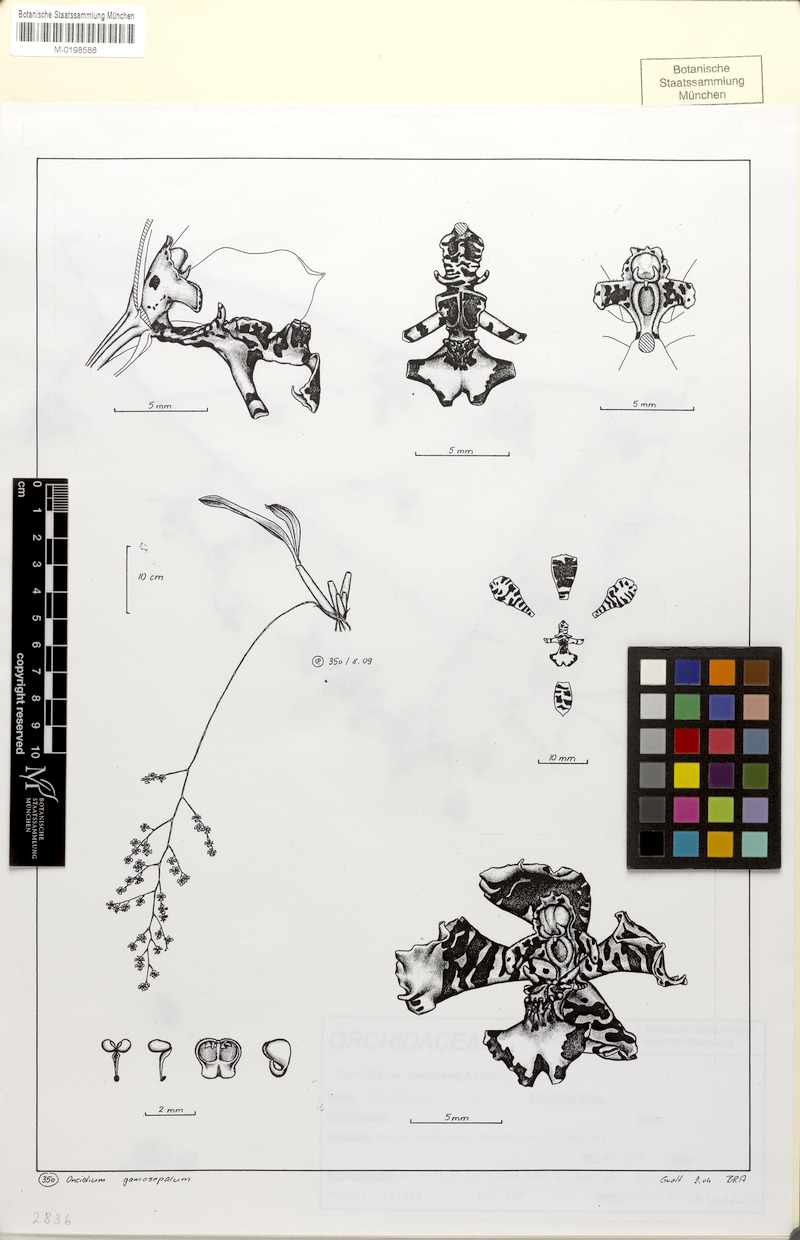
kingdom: Plantae
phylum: Tracheophyta
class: Liliopsida
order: Asparagales
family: Orchidaceae
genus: Gomesa
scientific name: Gomesa bicornuta
